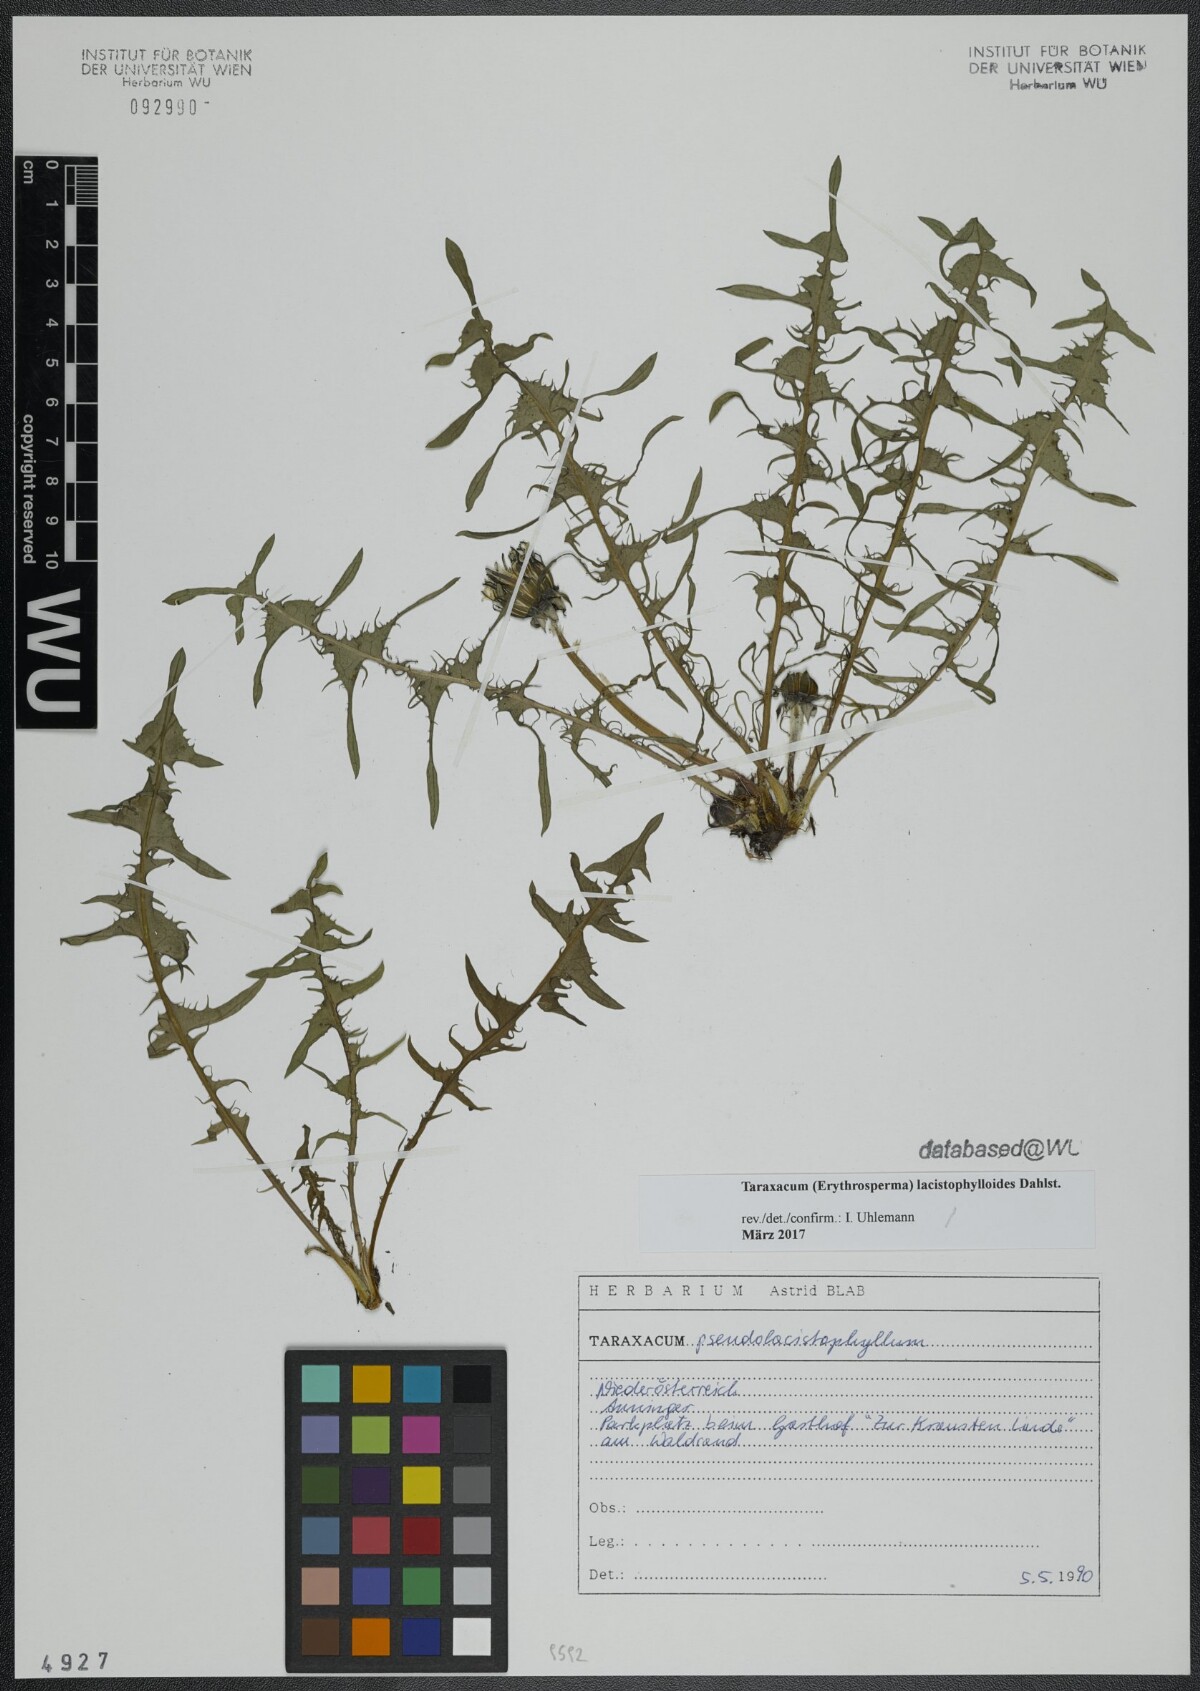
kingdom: Plantae
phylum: Tracheophyta
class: Magnoliopsida
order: Asterales
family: Asteraceae
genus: Taraxacum
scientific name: Taraxacum lacistophylloides
